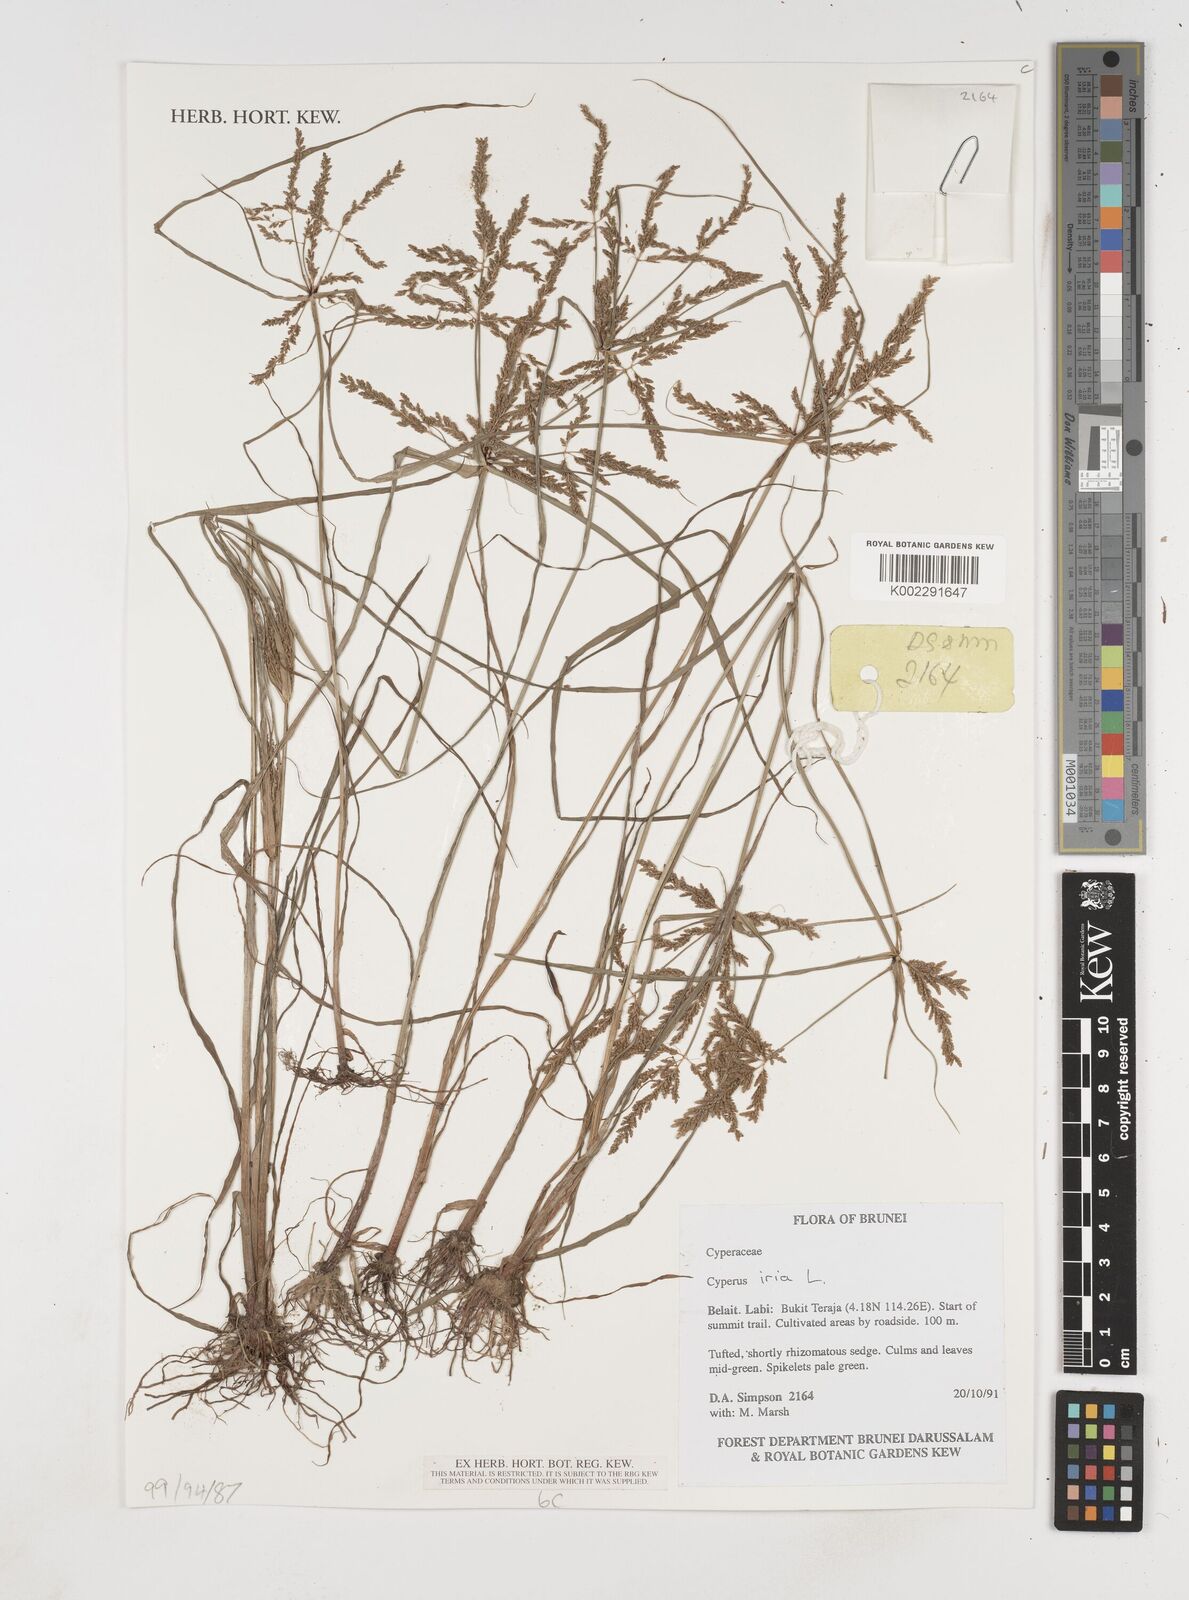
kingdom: Plantae
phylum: Tracheophyta
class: Liliopsida
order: Poales
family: Cyperaceae
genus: Cyperus
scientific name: Cyperus iria
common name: Ricefield flatsedge
